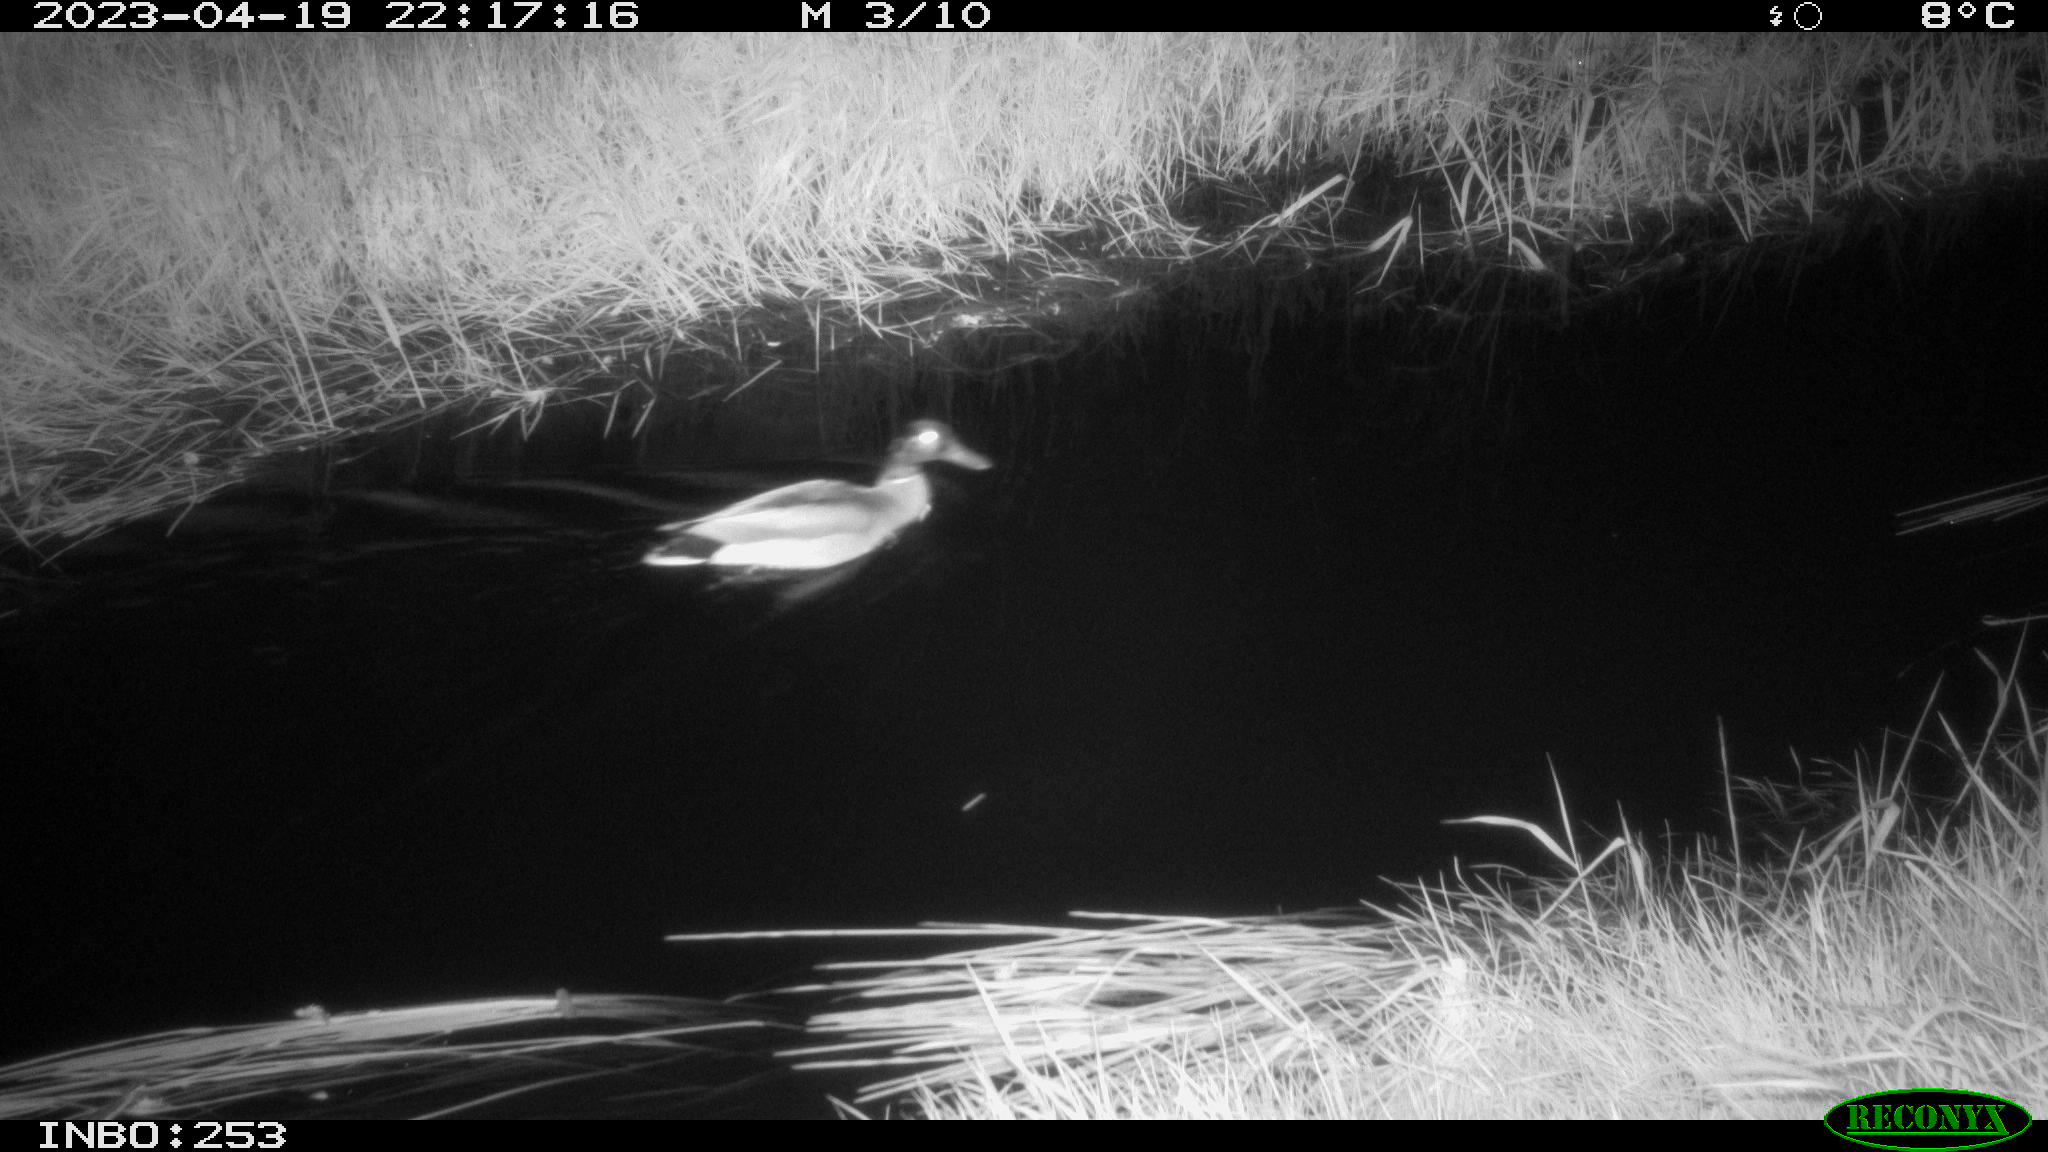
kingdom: Animalia
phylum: Chordata
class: Aves
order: Anseriformes
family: Anatidae
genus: Anas
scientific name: Anas
